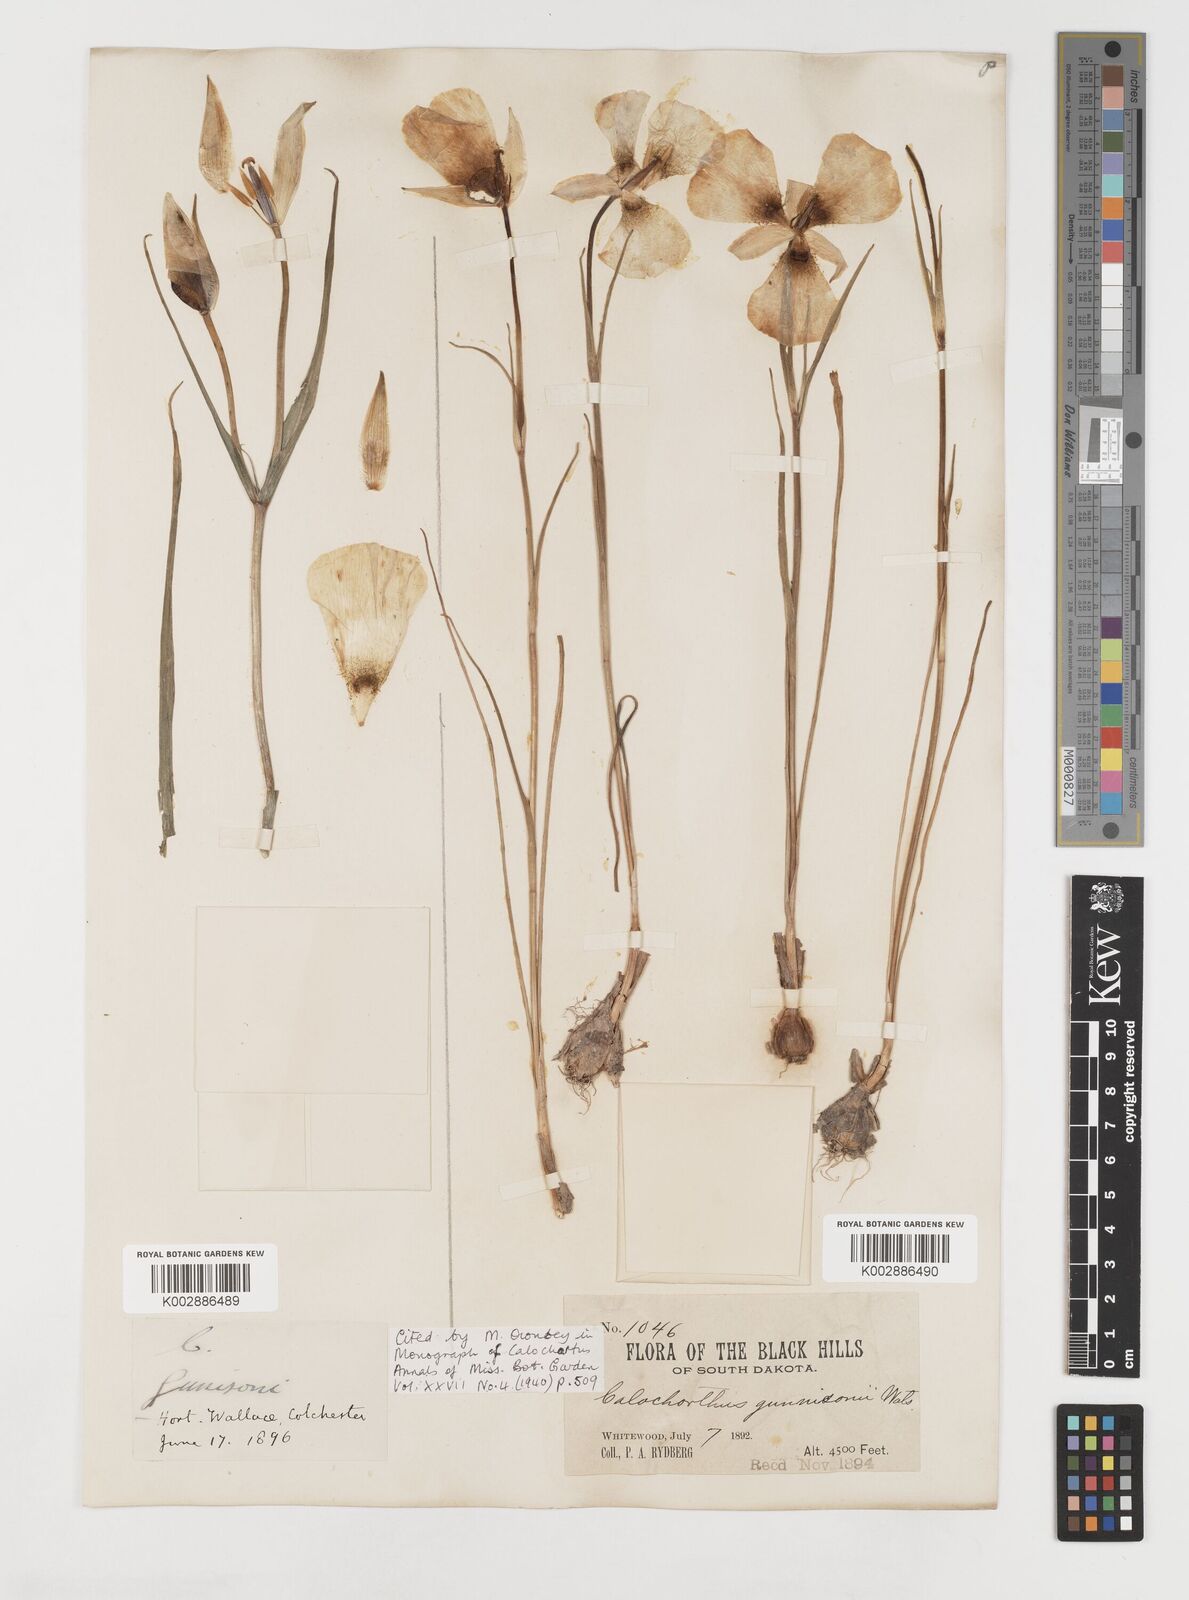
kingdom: Plantae
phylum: Tracheophyta
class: Liliopsida
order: Liliales
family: Liliaceae
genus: Calochortus
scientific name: Calochortus gunnisonii
